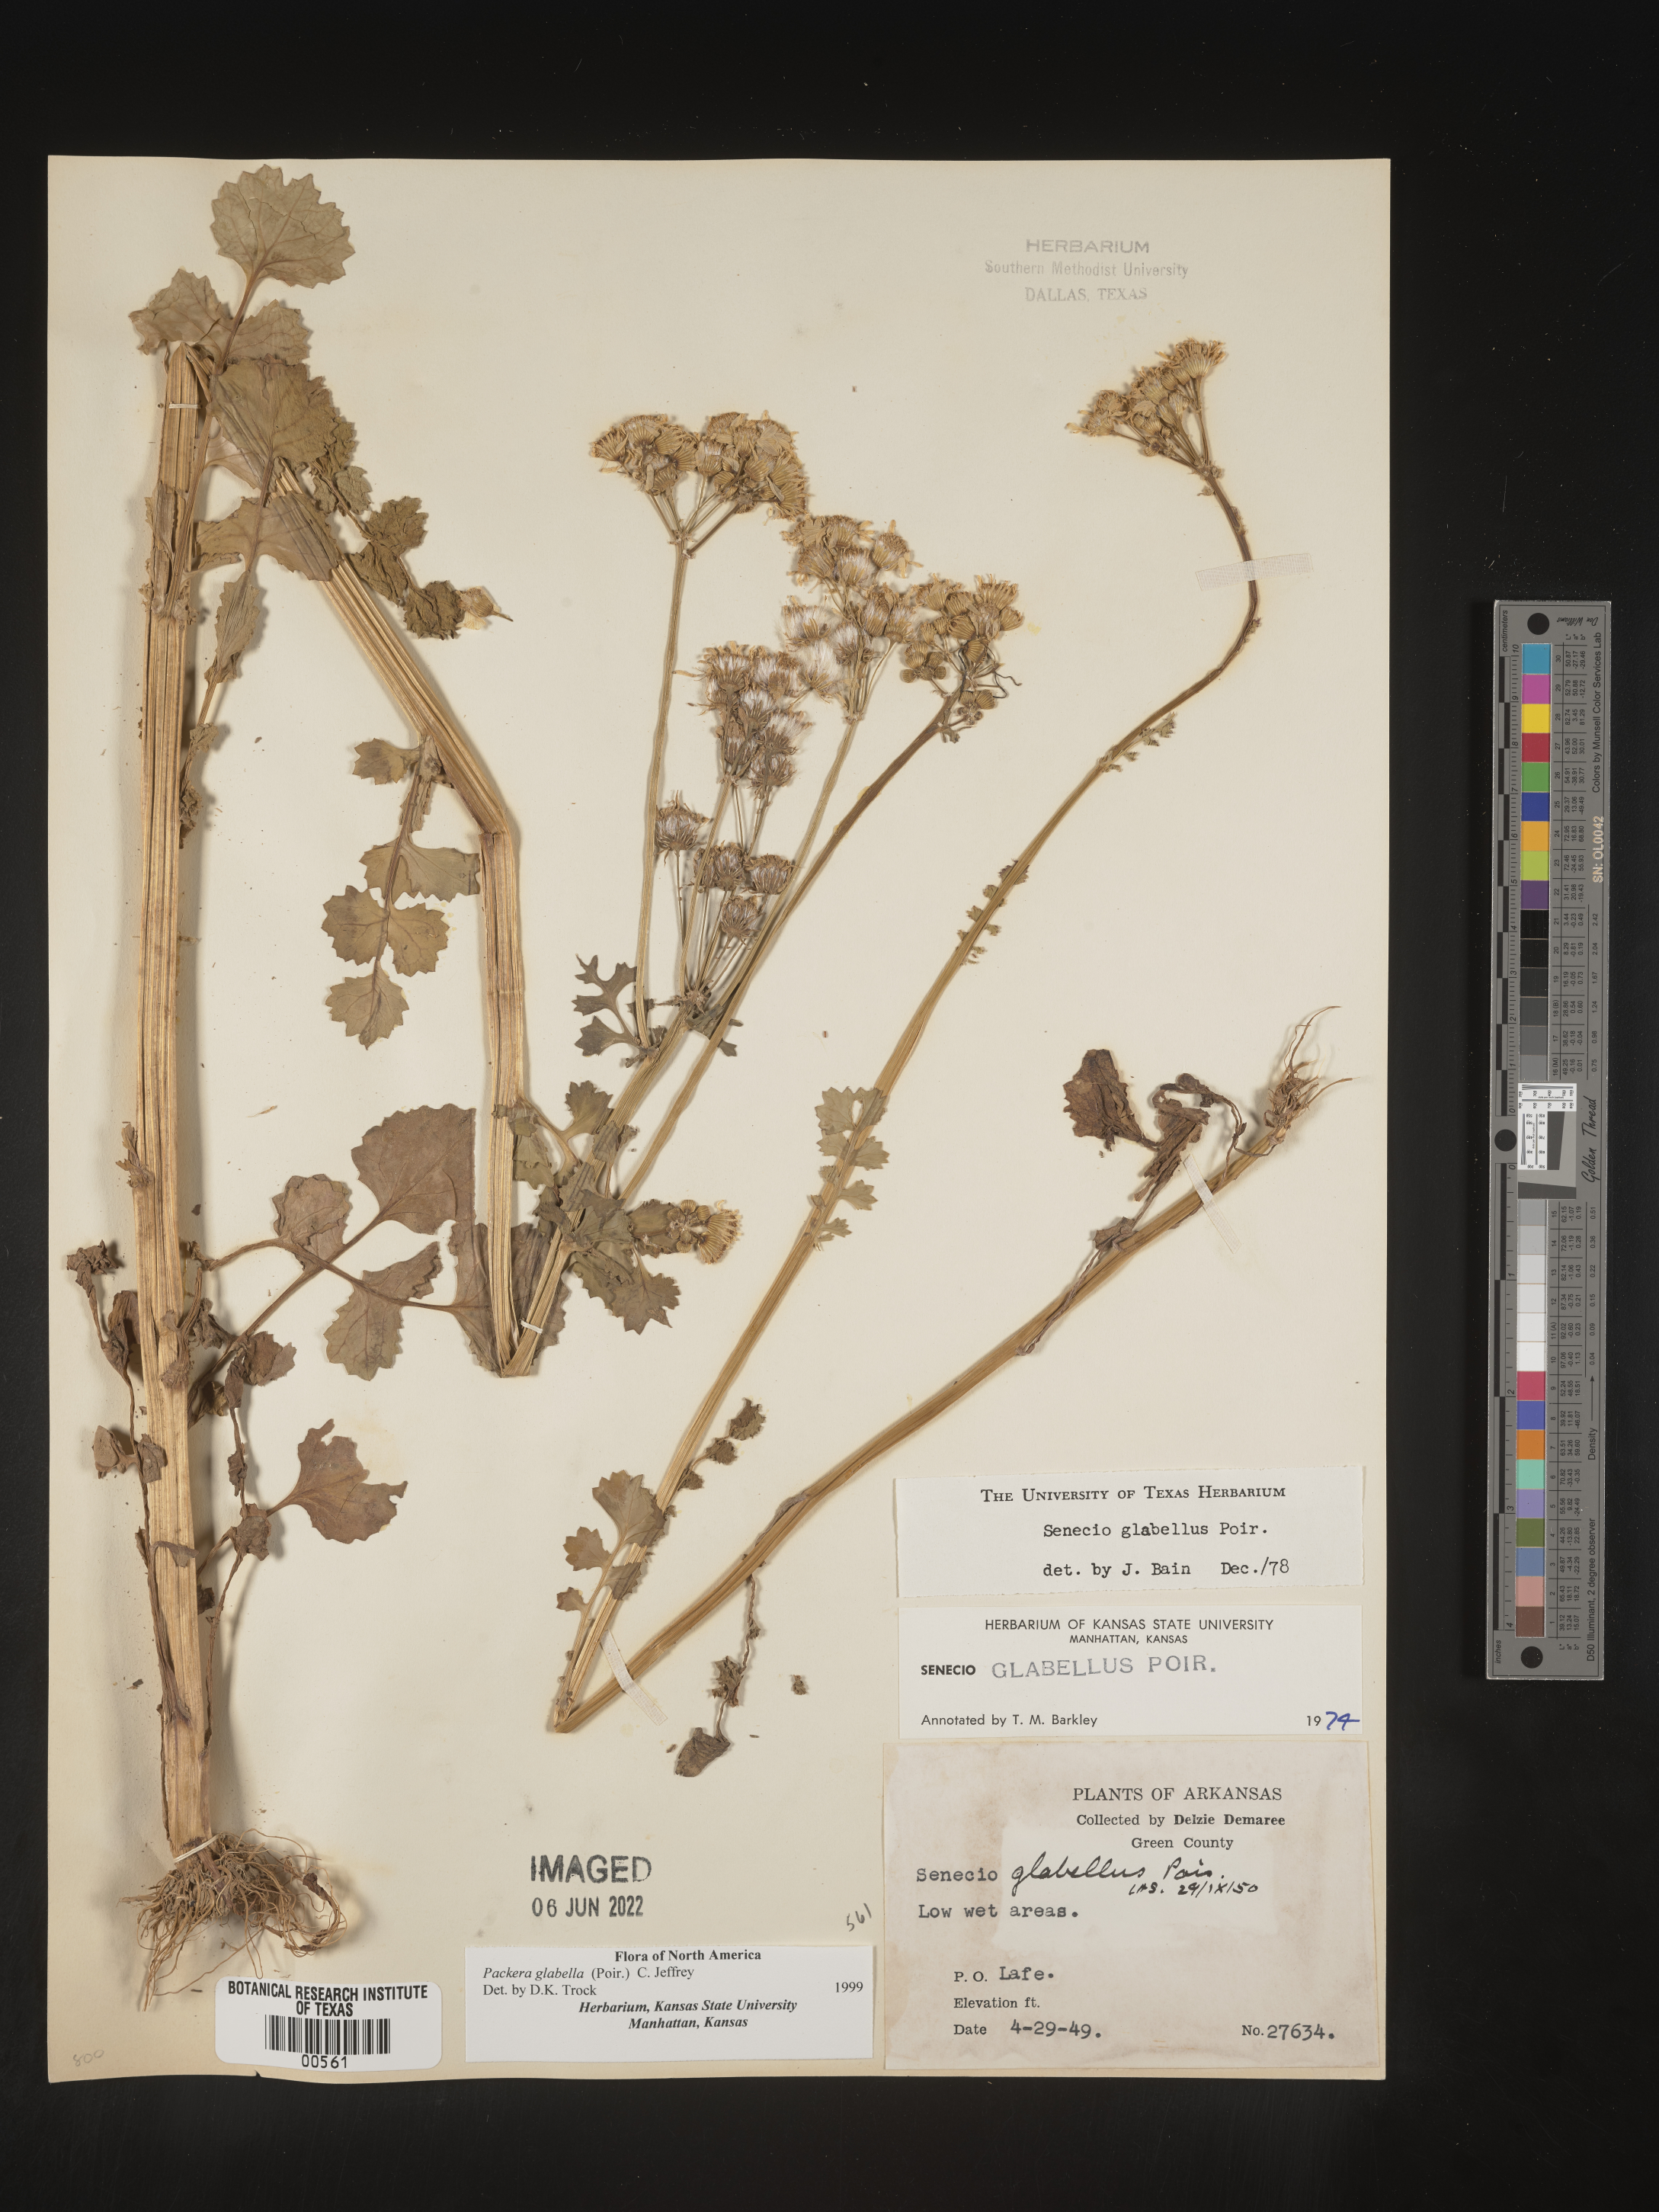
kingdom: Plantae
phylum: Tracheophyta
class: Magnoliopsida
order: Asterales
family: Asteraceae
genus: Packera
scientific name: Packera glabella
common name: Butterweed
